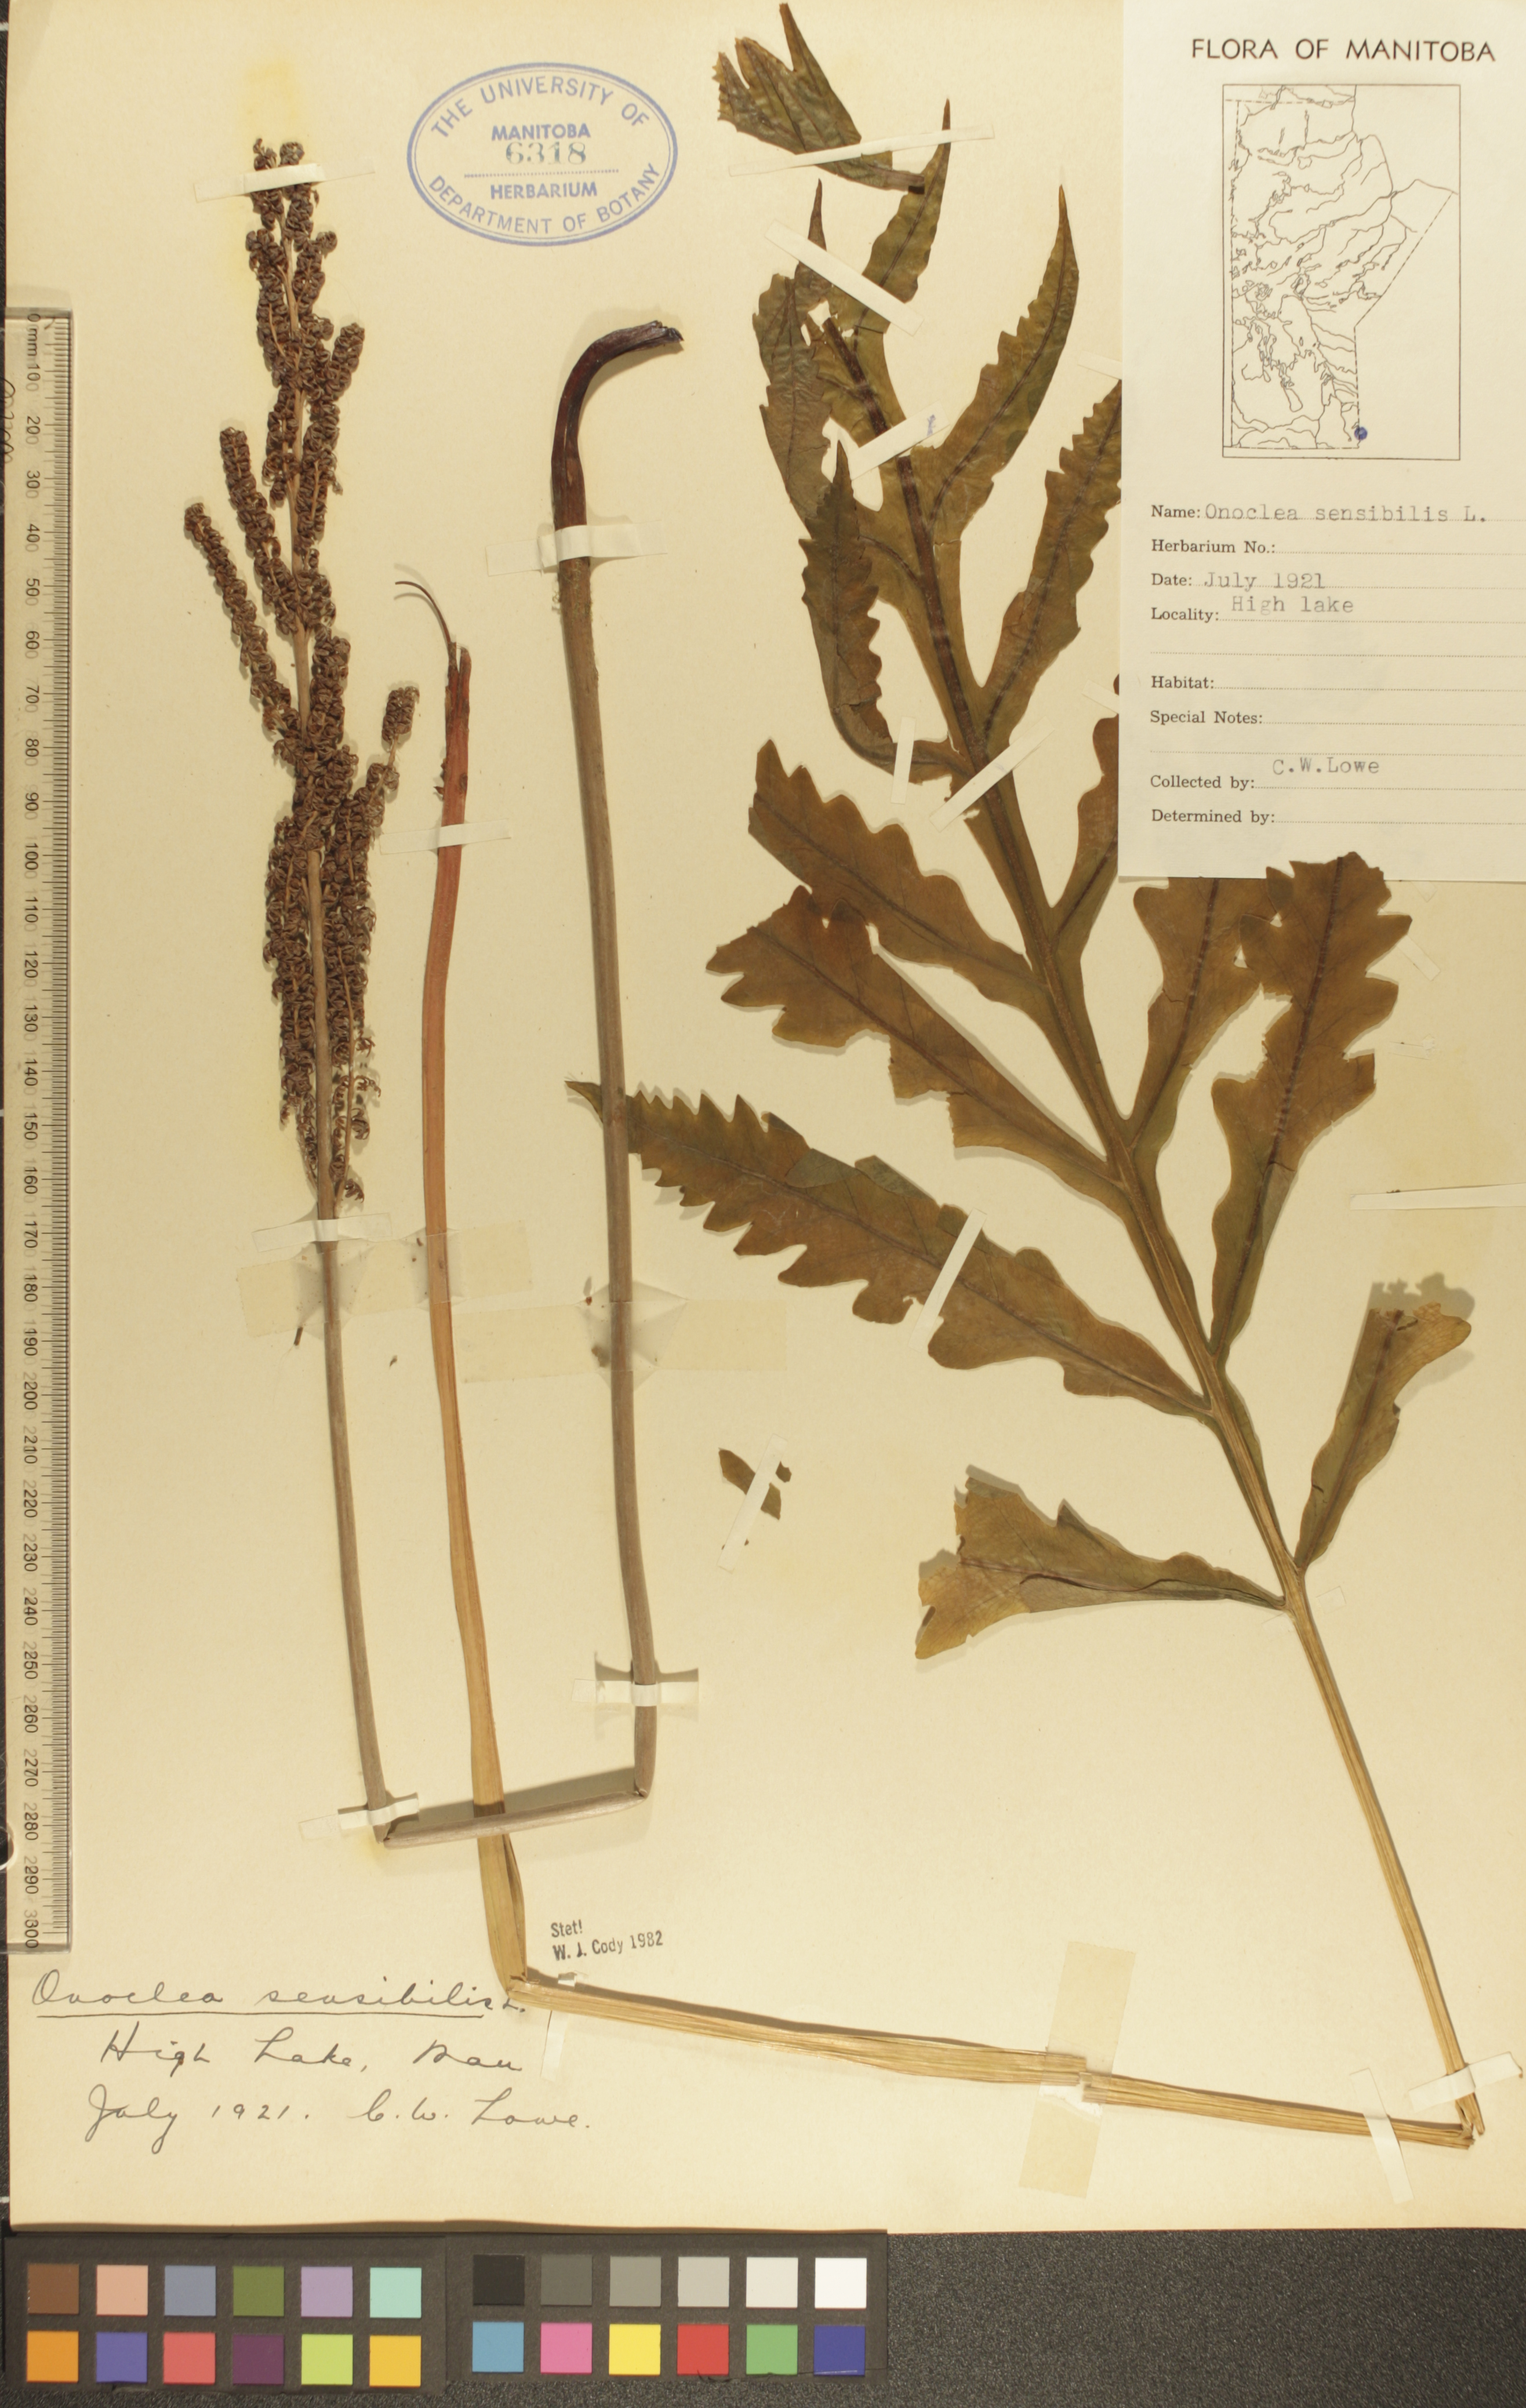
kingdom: Plantae
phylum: Tracheophyta
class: Polypodiopsida
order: Polypodiales
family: Onocleaceae
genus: Onoclea
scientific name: Onoclea sensibilis
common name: Sensitive fern
